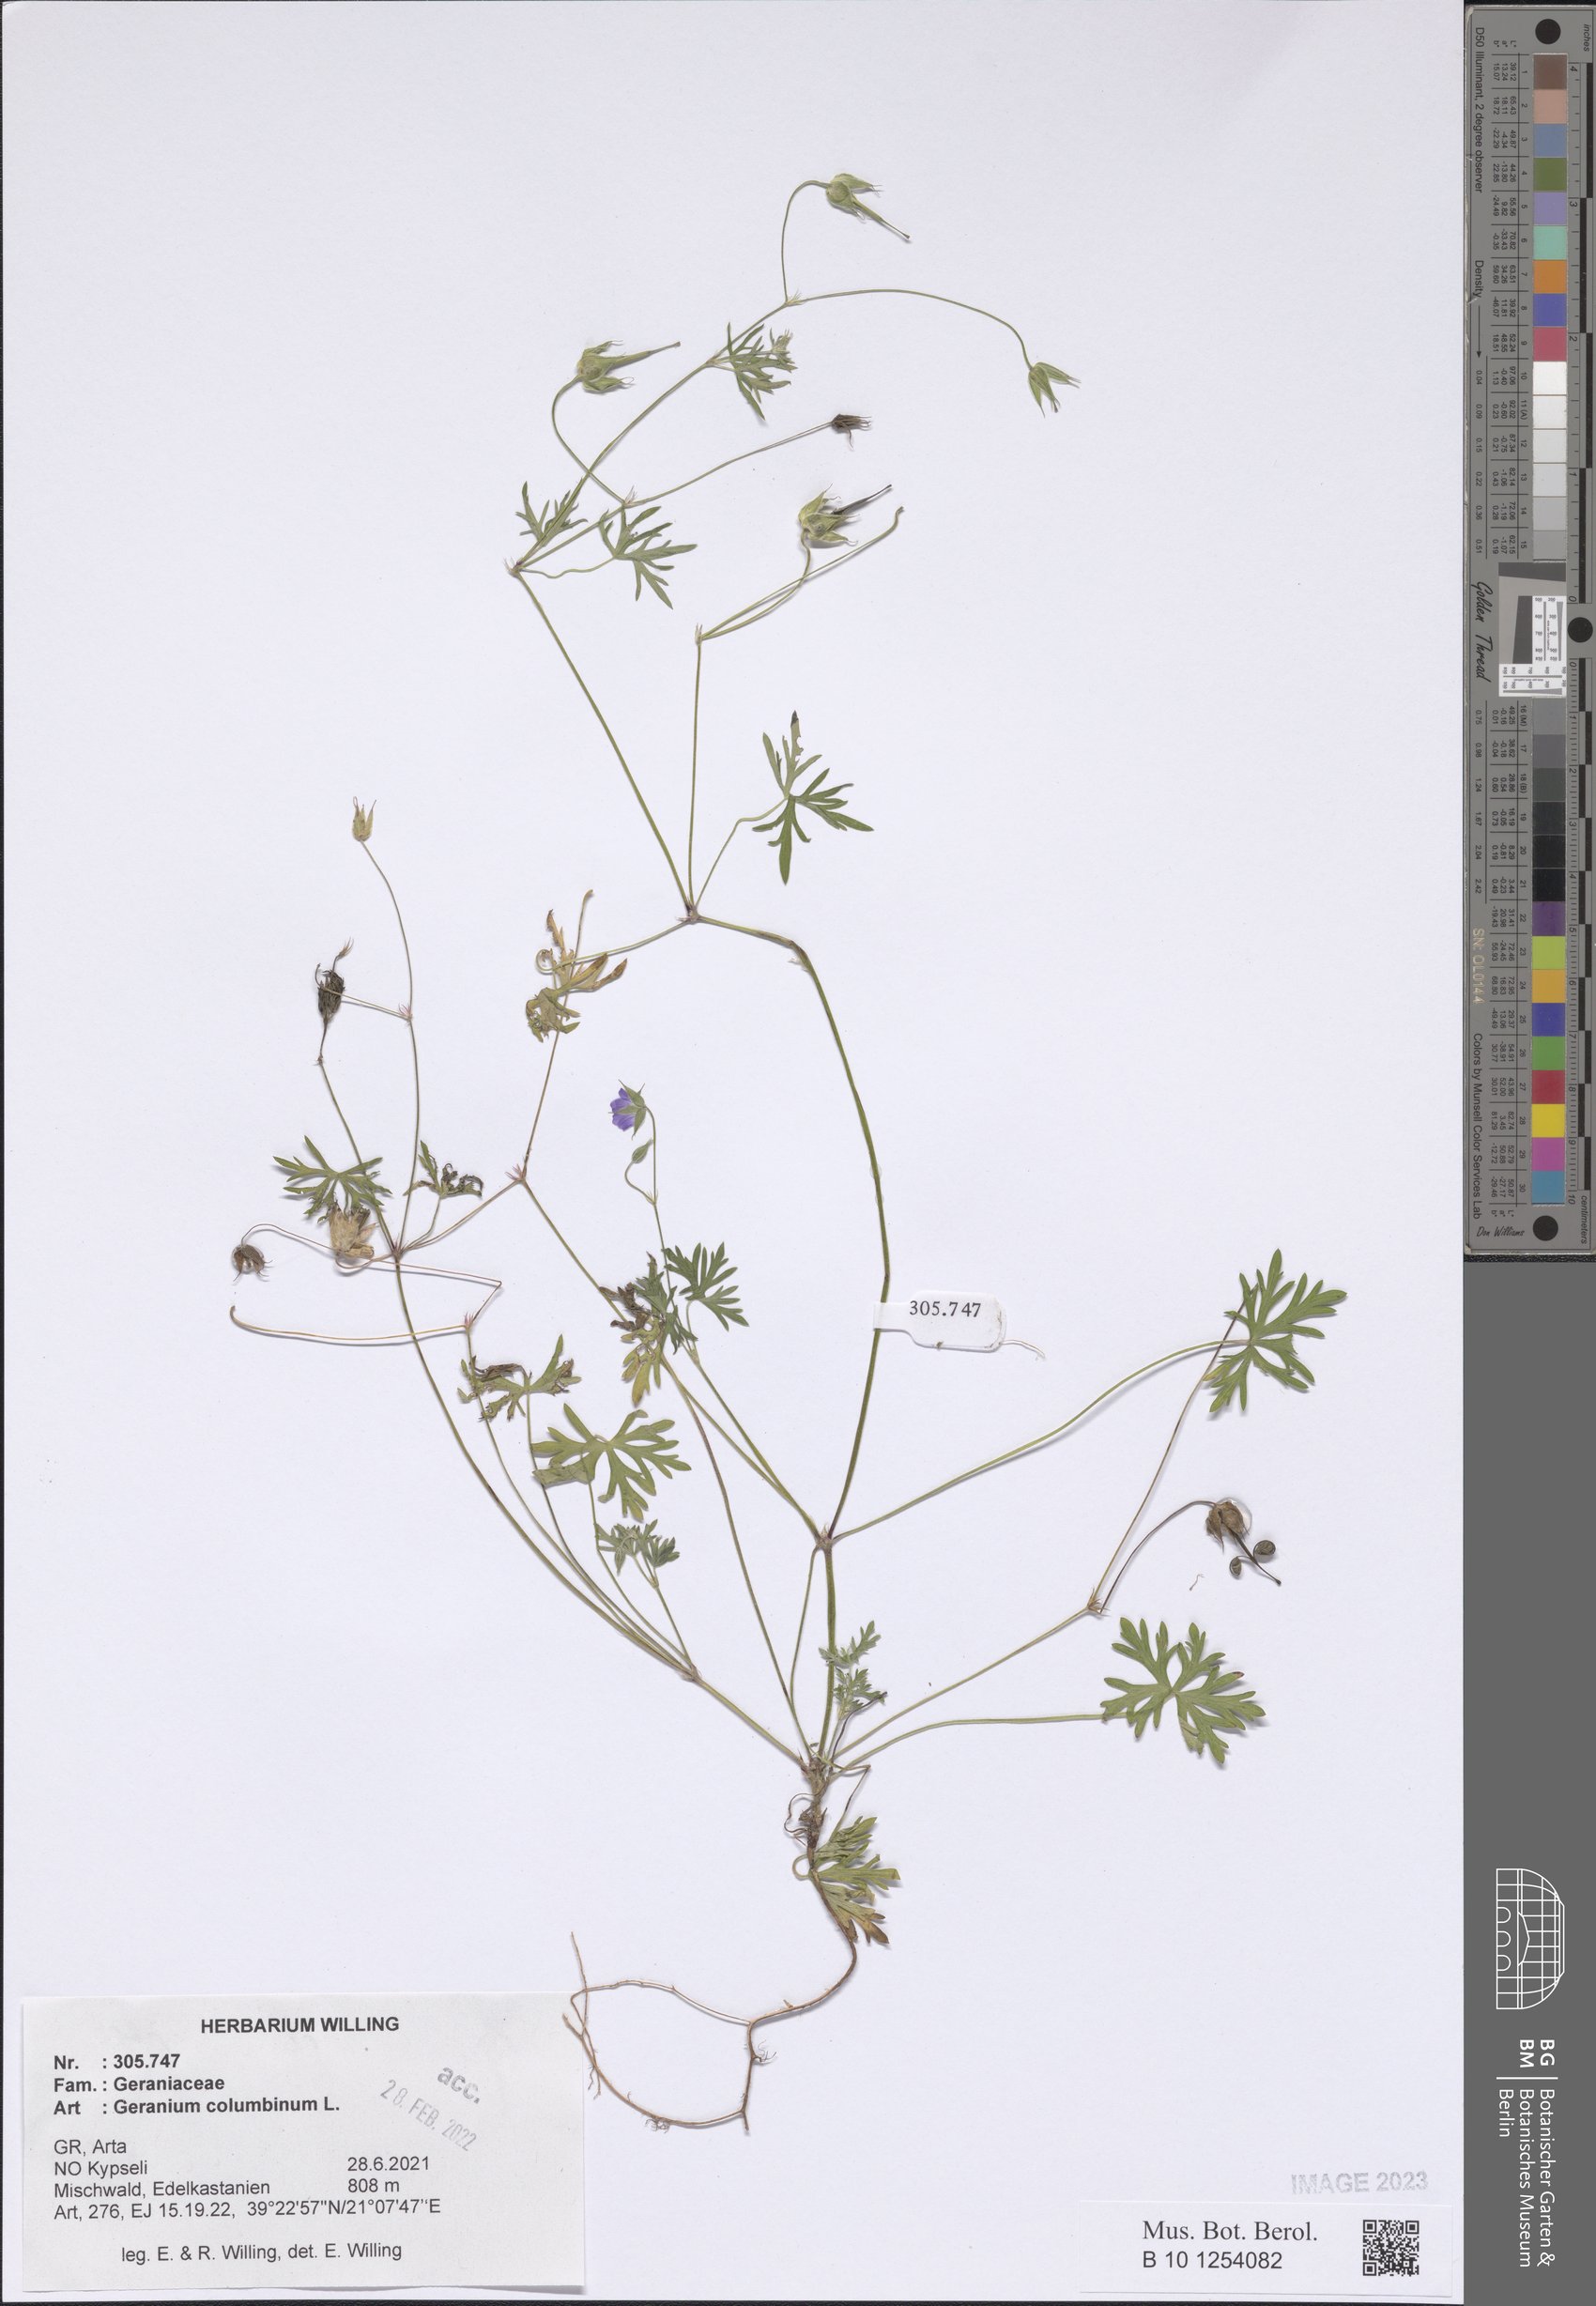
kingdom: Plantae
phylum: Tracheophyta
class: Magnoliopsida
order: Geraniales
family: Geraniaceae
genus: Geranium
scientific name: Geranium columbinum
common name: Long-stalked crane's-bill
